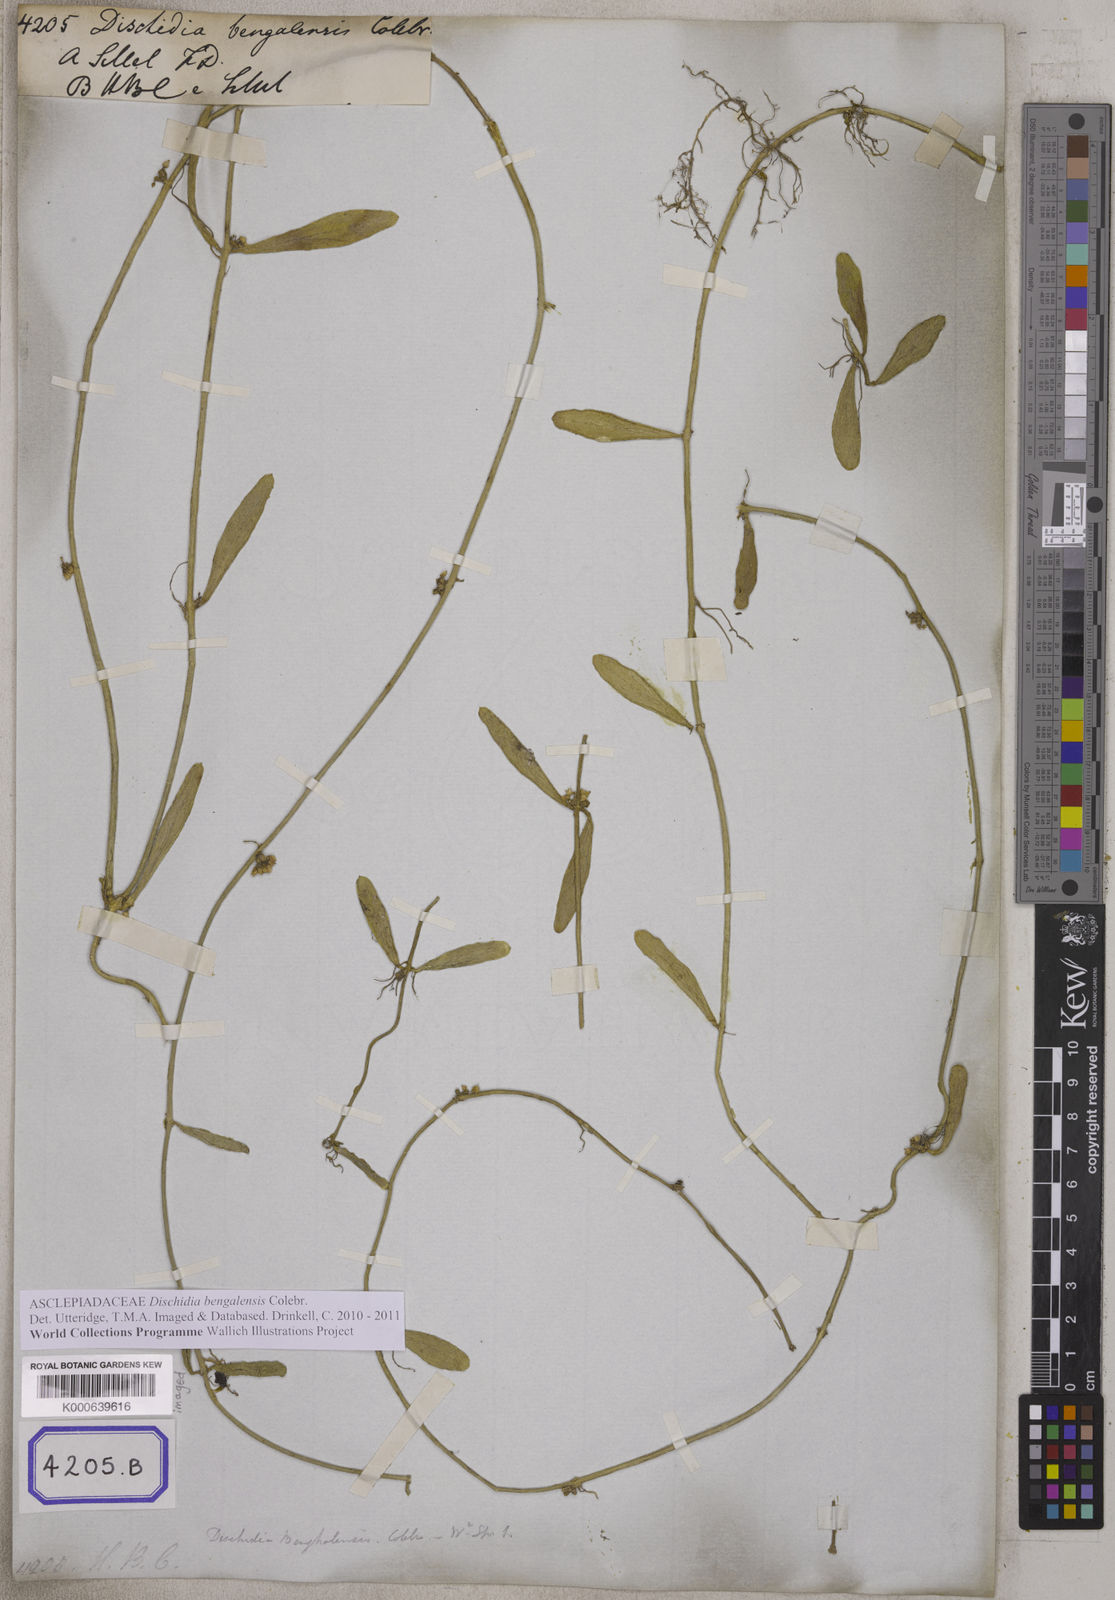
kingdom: Plantae
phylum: Tracheophyta
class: Magnoliopsida
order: Gentianales
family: Apocynaceae
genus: Dischidia
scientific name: Dischidia bengalensis
